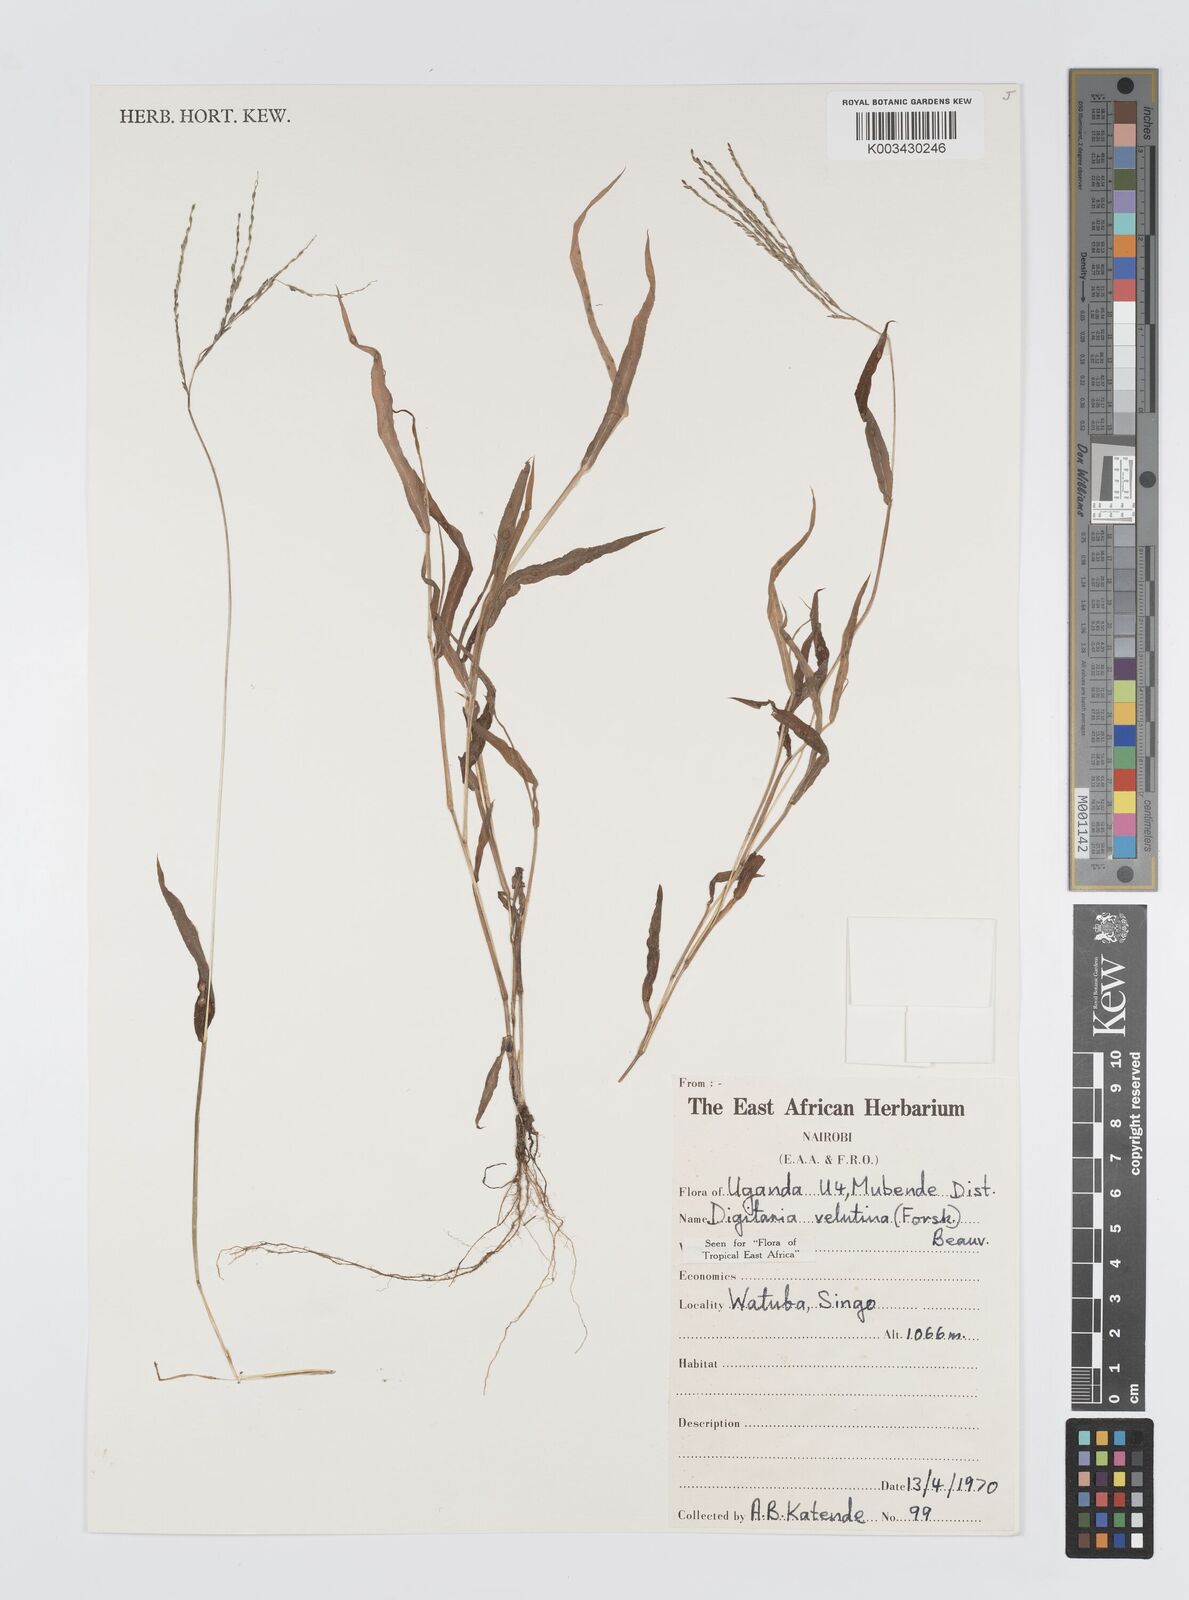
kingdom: Plantae
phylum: Tracheophyta
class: Liliopsida
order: Poales
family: Poaceae
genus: Digitaria
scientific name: Digitaria velutina
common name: Long-plume finger grass
